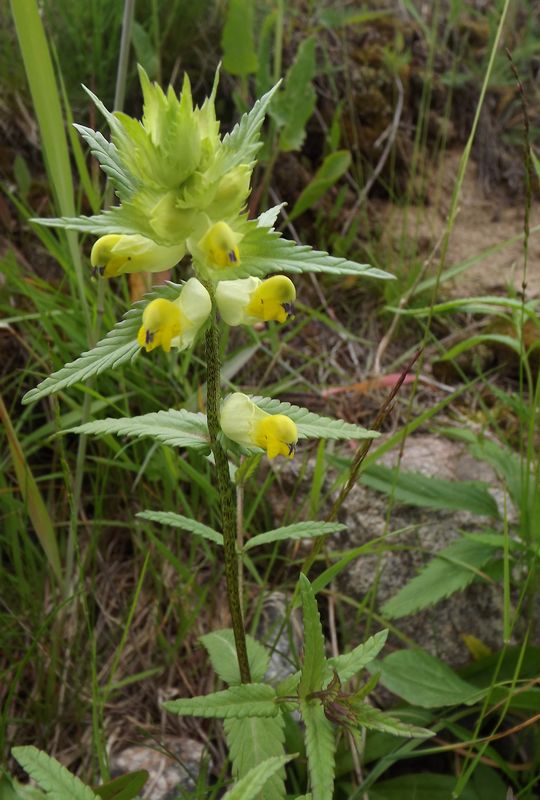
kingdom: Plantae
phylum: Tracheophyta
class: Magnoliopsida
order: Lamiales
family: Orobanchaceae
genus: Rhinanthus
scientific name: Rhinanthus serotinus
